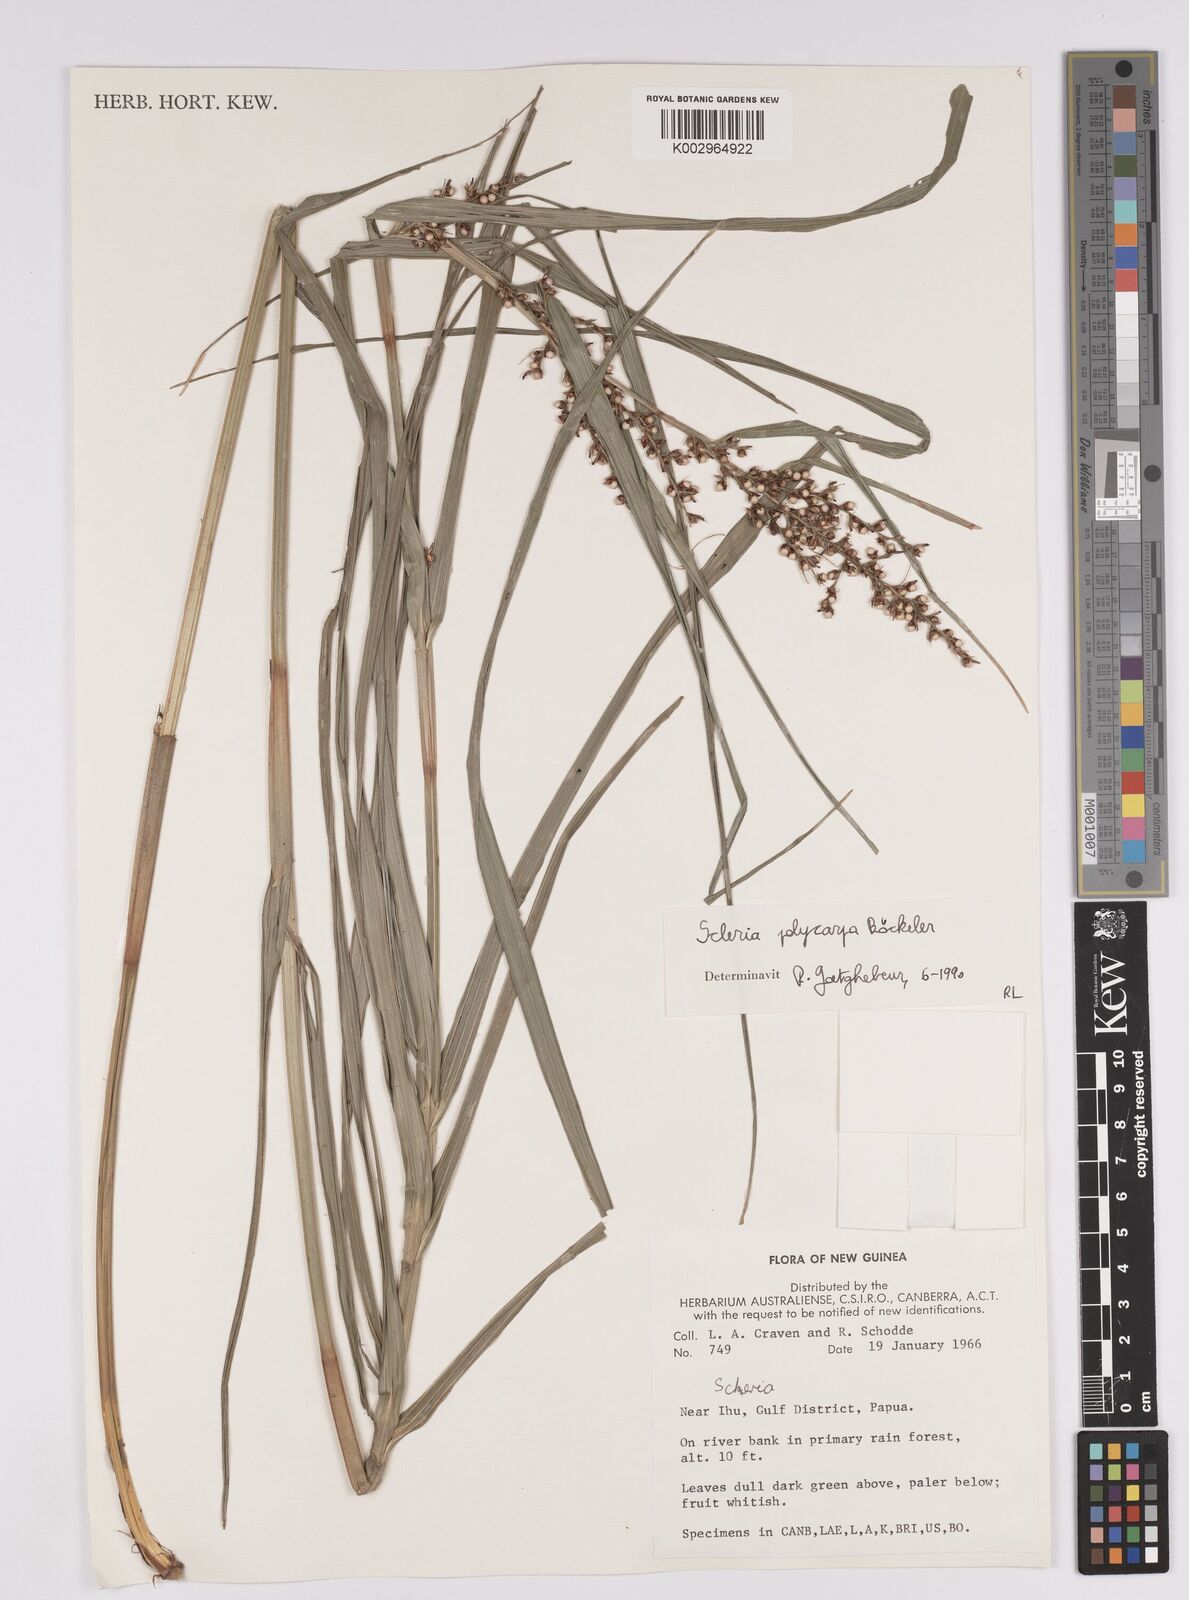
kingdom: Plantae
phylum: Tracheophyta
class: Liliopsida
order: Poales
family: Cyperaceae
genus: Scleria
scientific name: Scleria polycarpa
